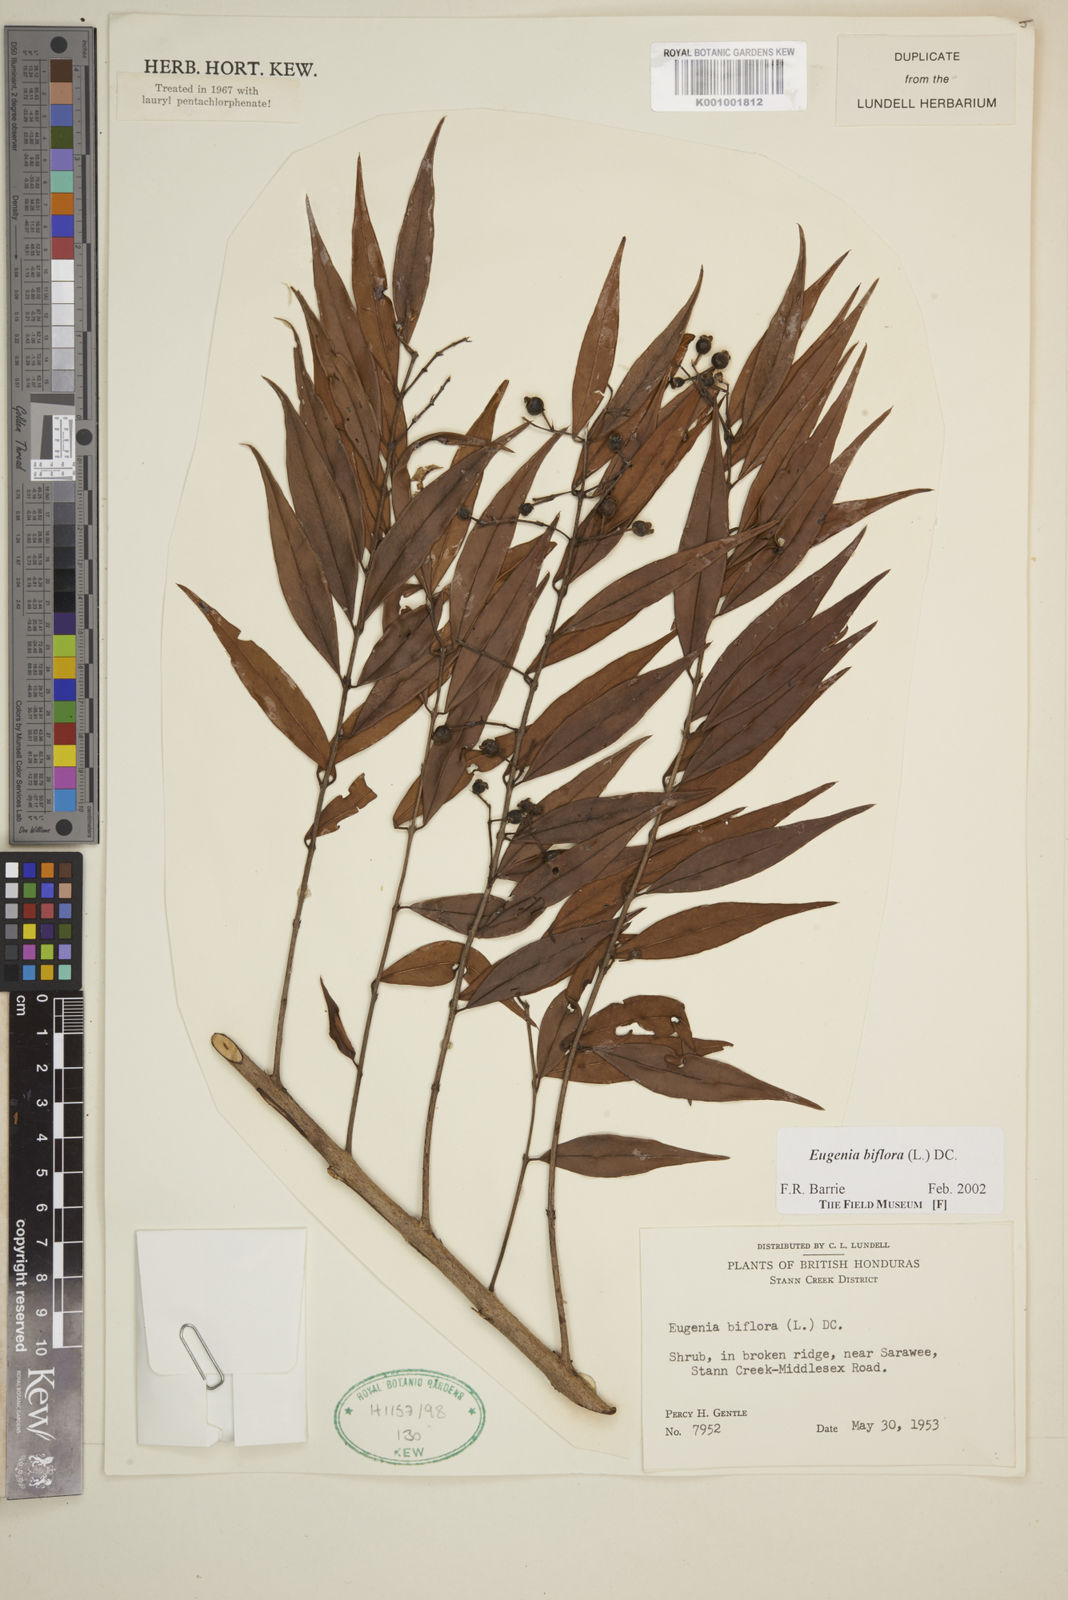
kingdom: Plantae
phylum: Tracheophyta
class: Magnoliopsida
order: Myrtales
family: Myrtaceae
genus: Eugenia
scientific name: Eugenia biflora
